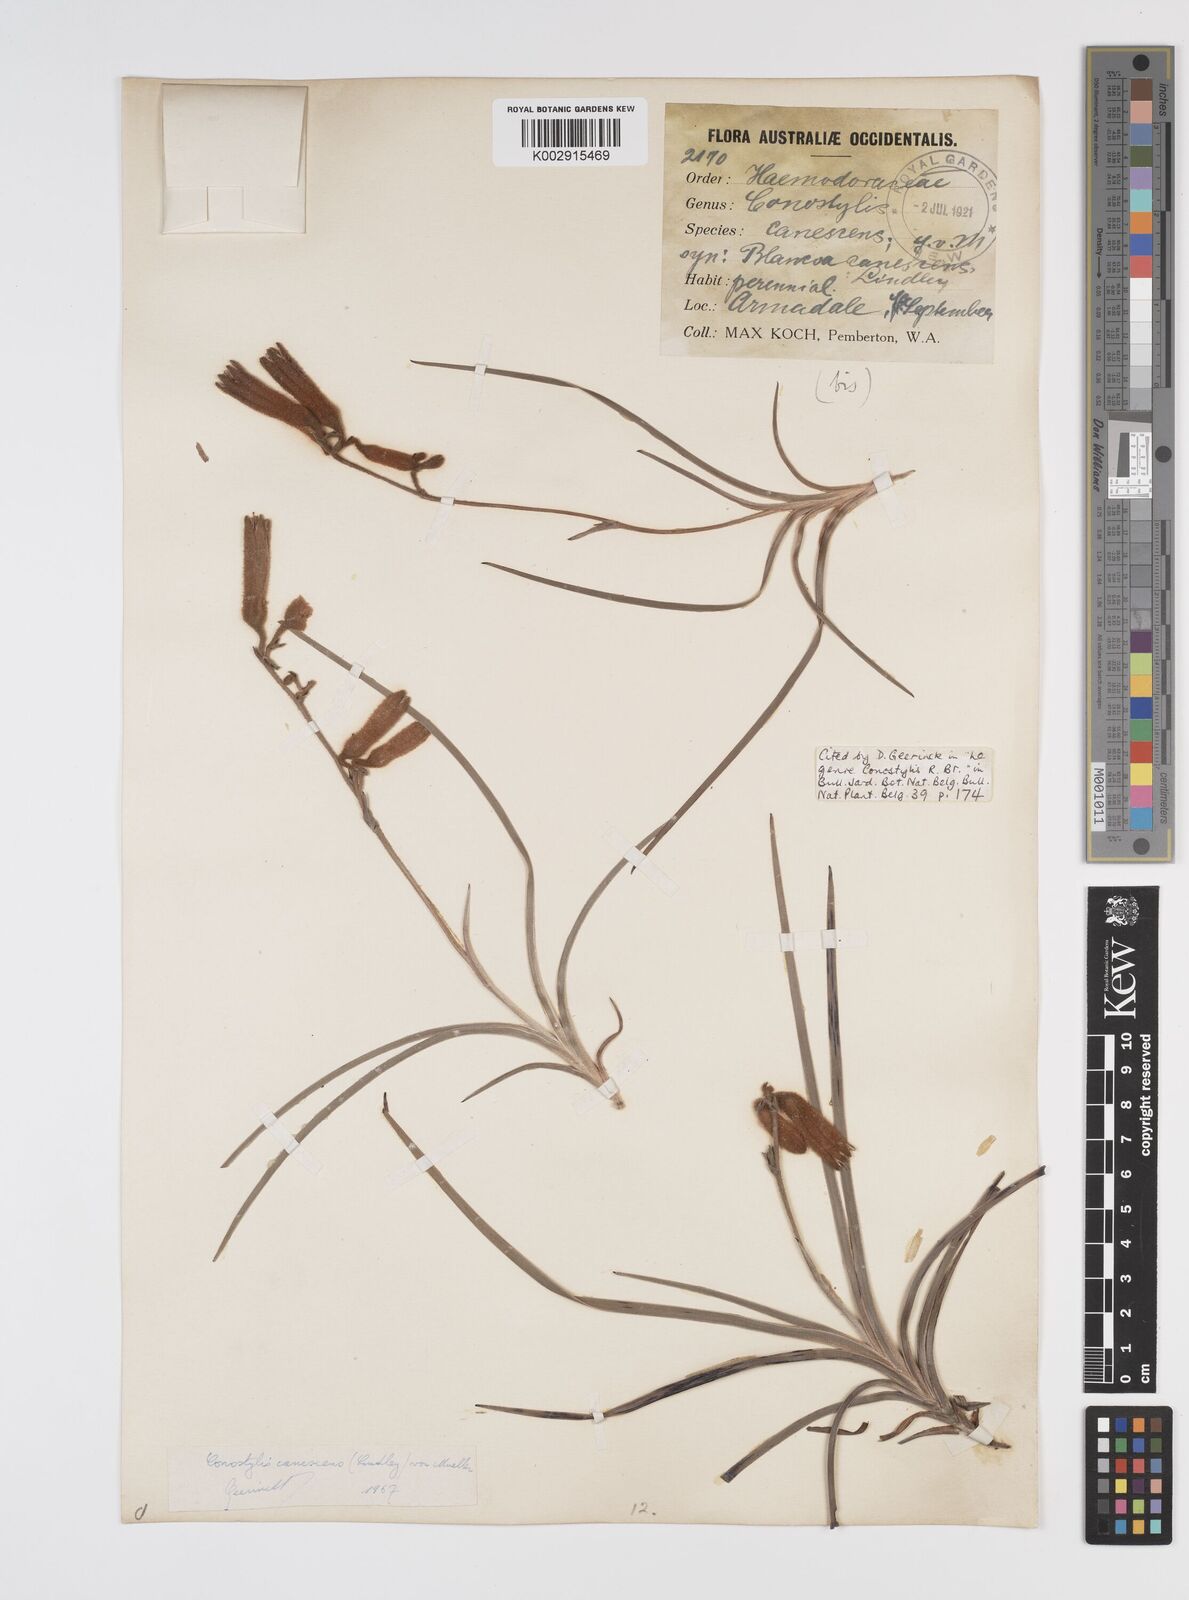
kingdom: Plantae
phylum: Tracheophyta
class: Liliopsida
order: Commelinales
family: Haemodoraceae
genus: Blancoa
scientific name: Blancoa canescens
